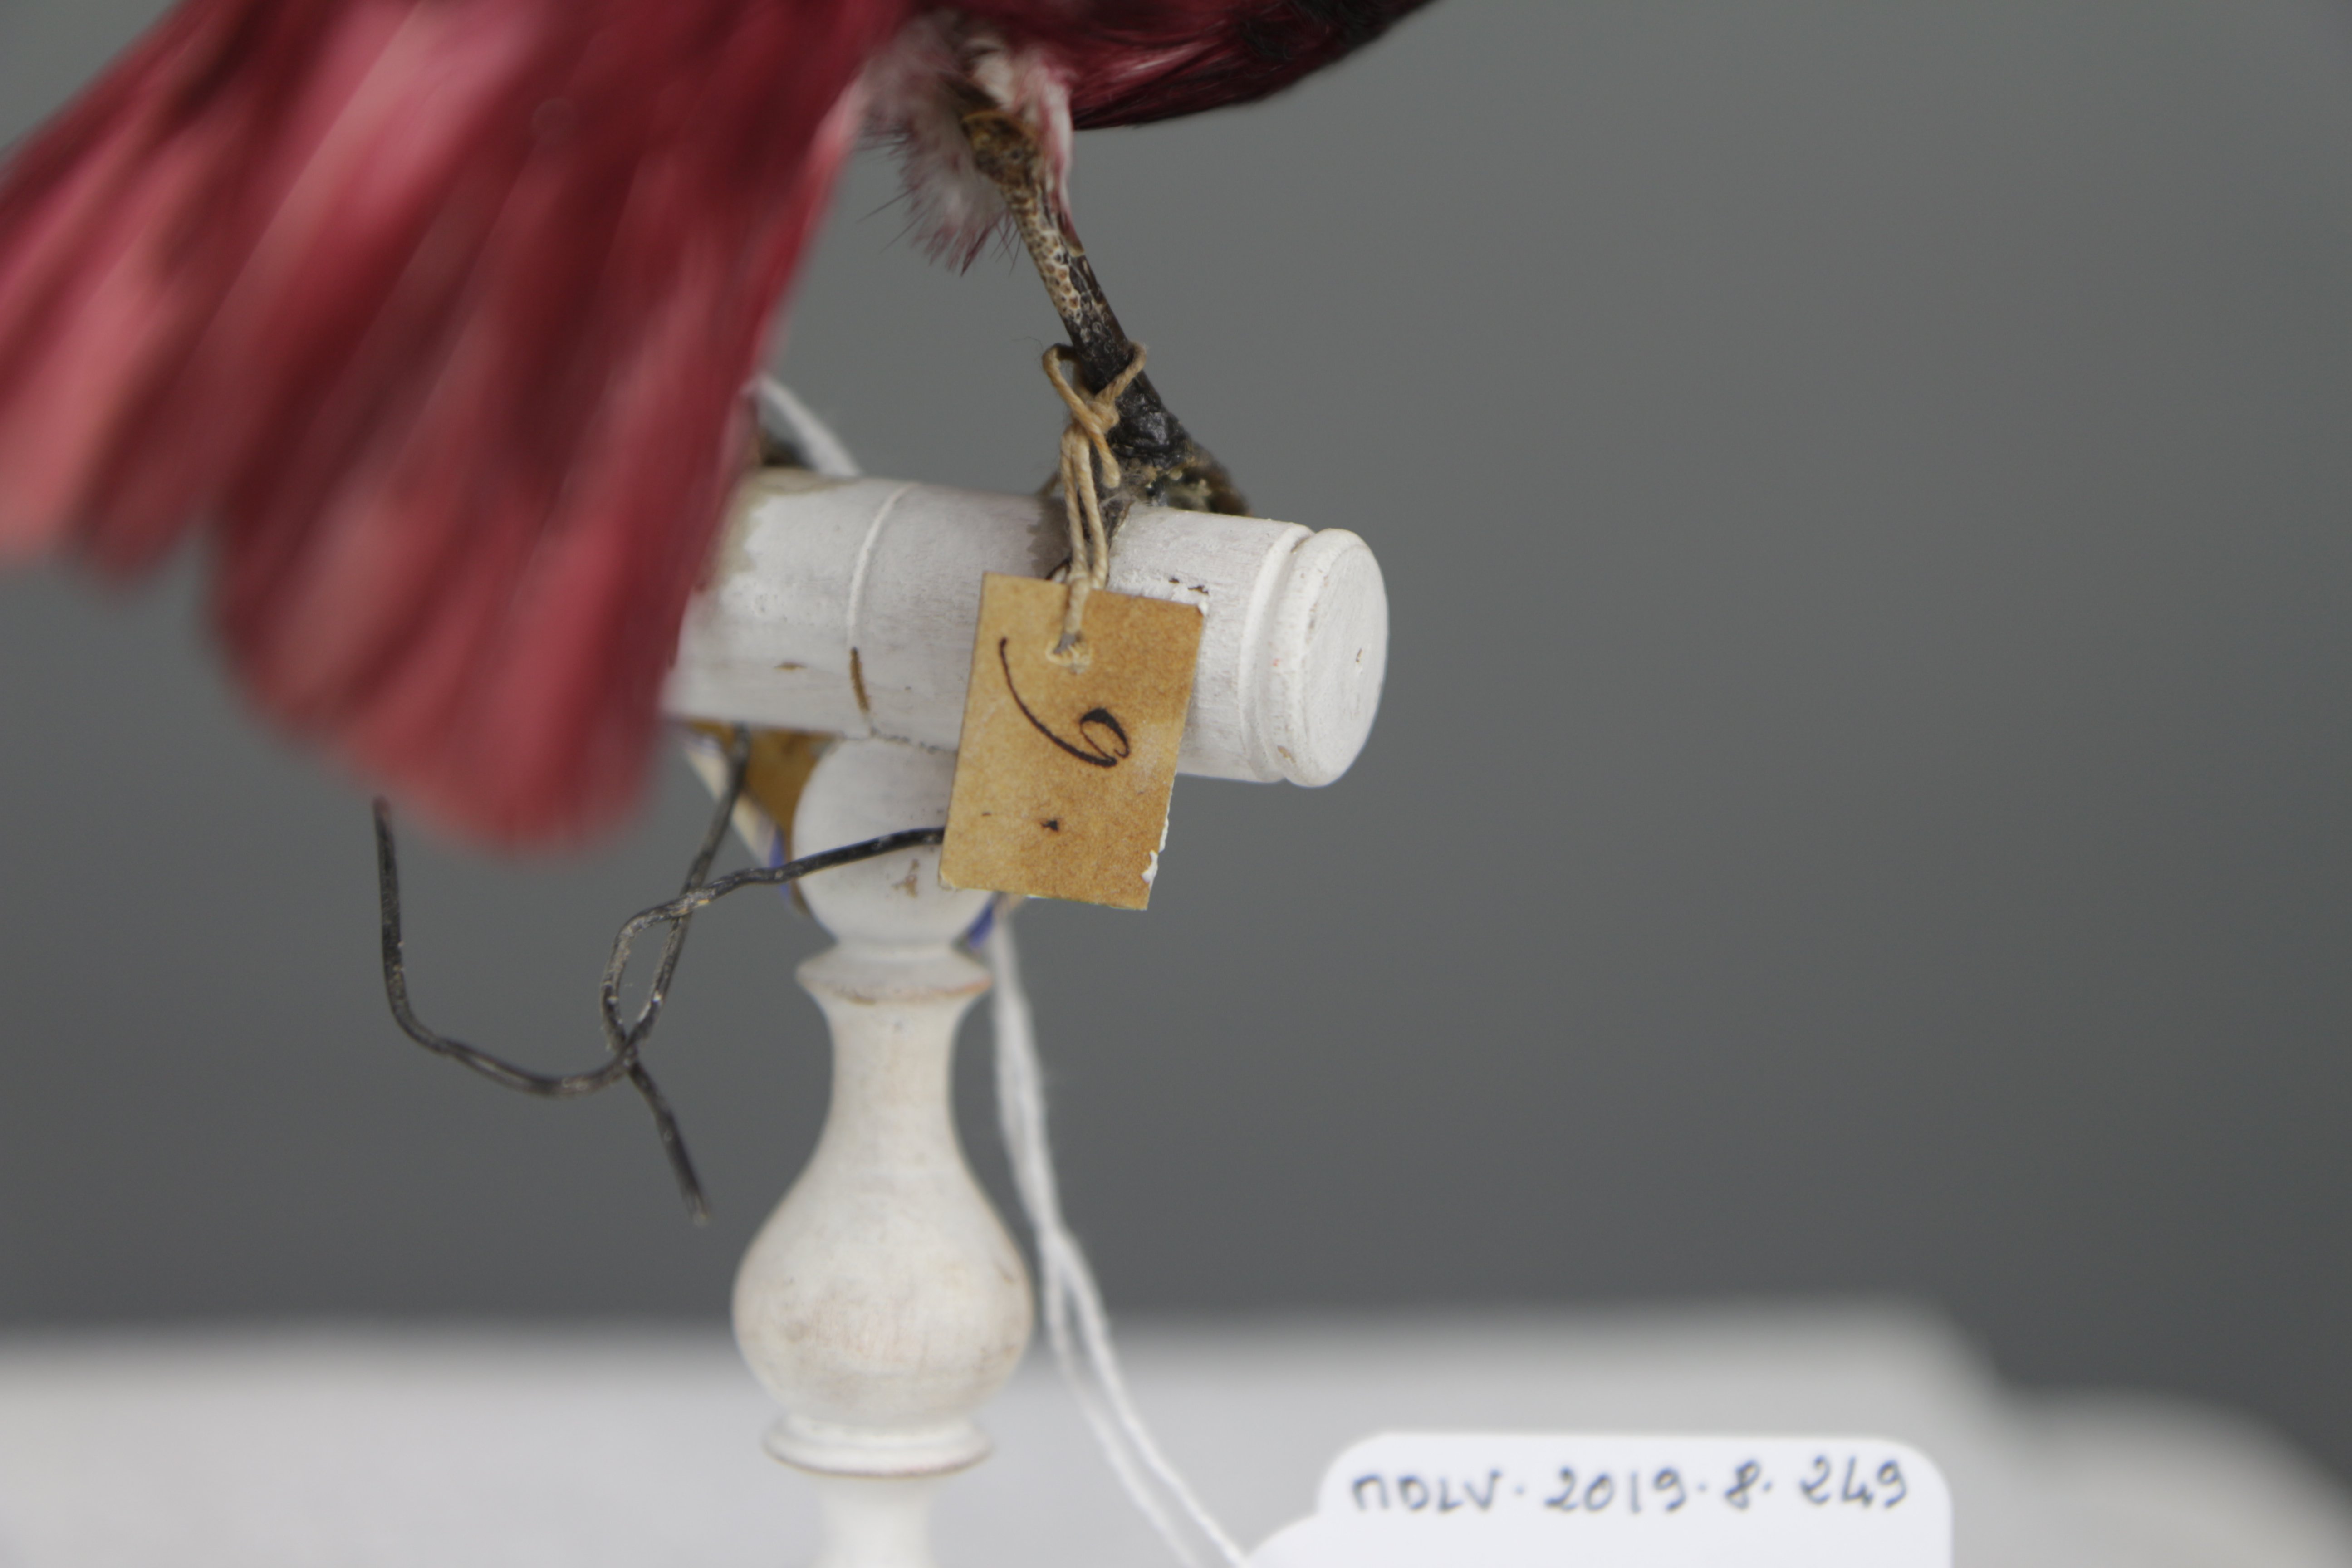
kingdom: Animalia
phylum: Chordata
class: Aves
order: Passeriformes
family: Cotingidae
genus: Xipholena
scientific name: Xipholena punicea
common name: Pompadour cotinga
